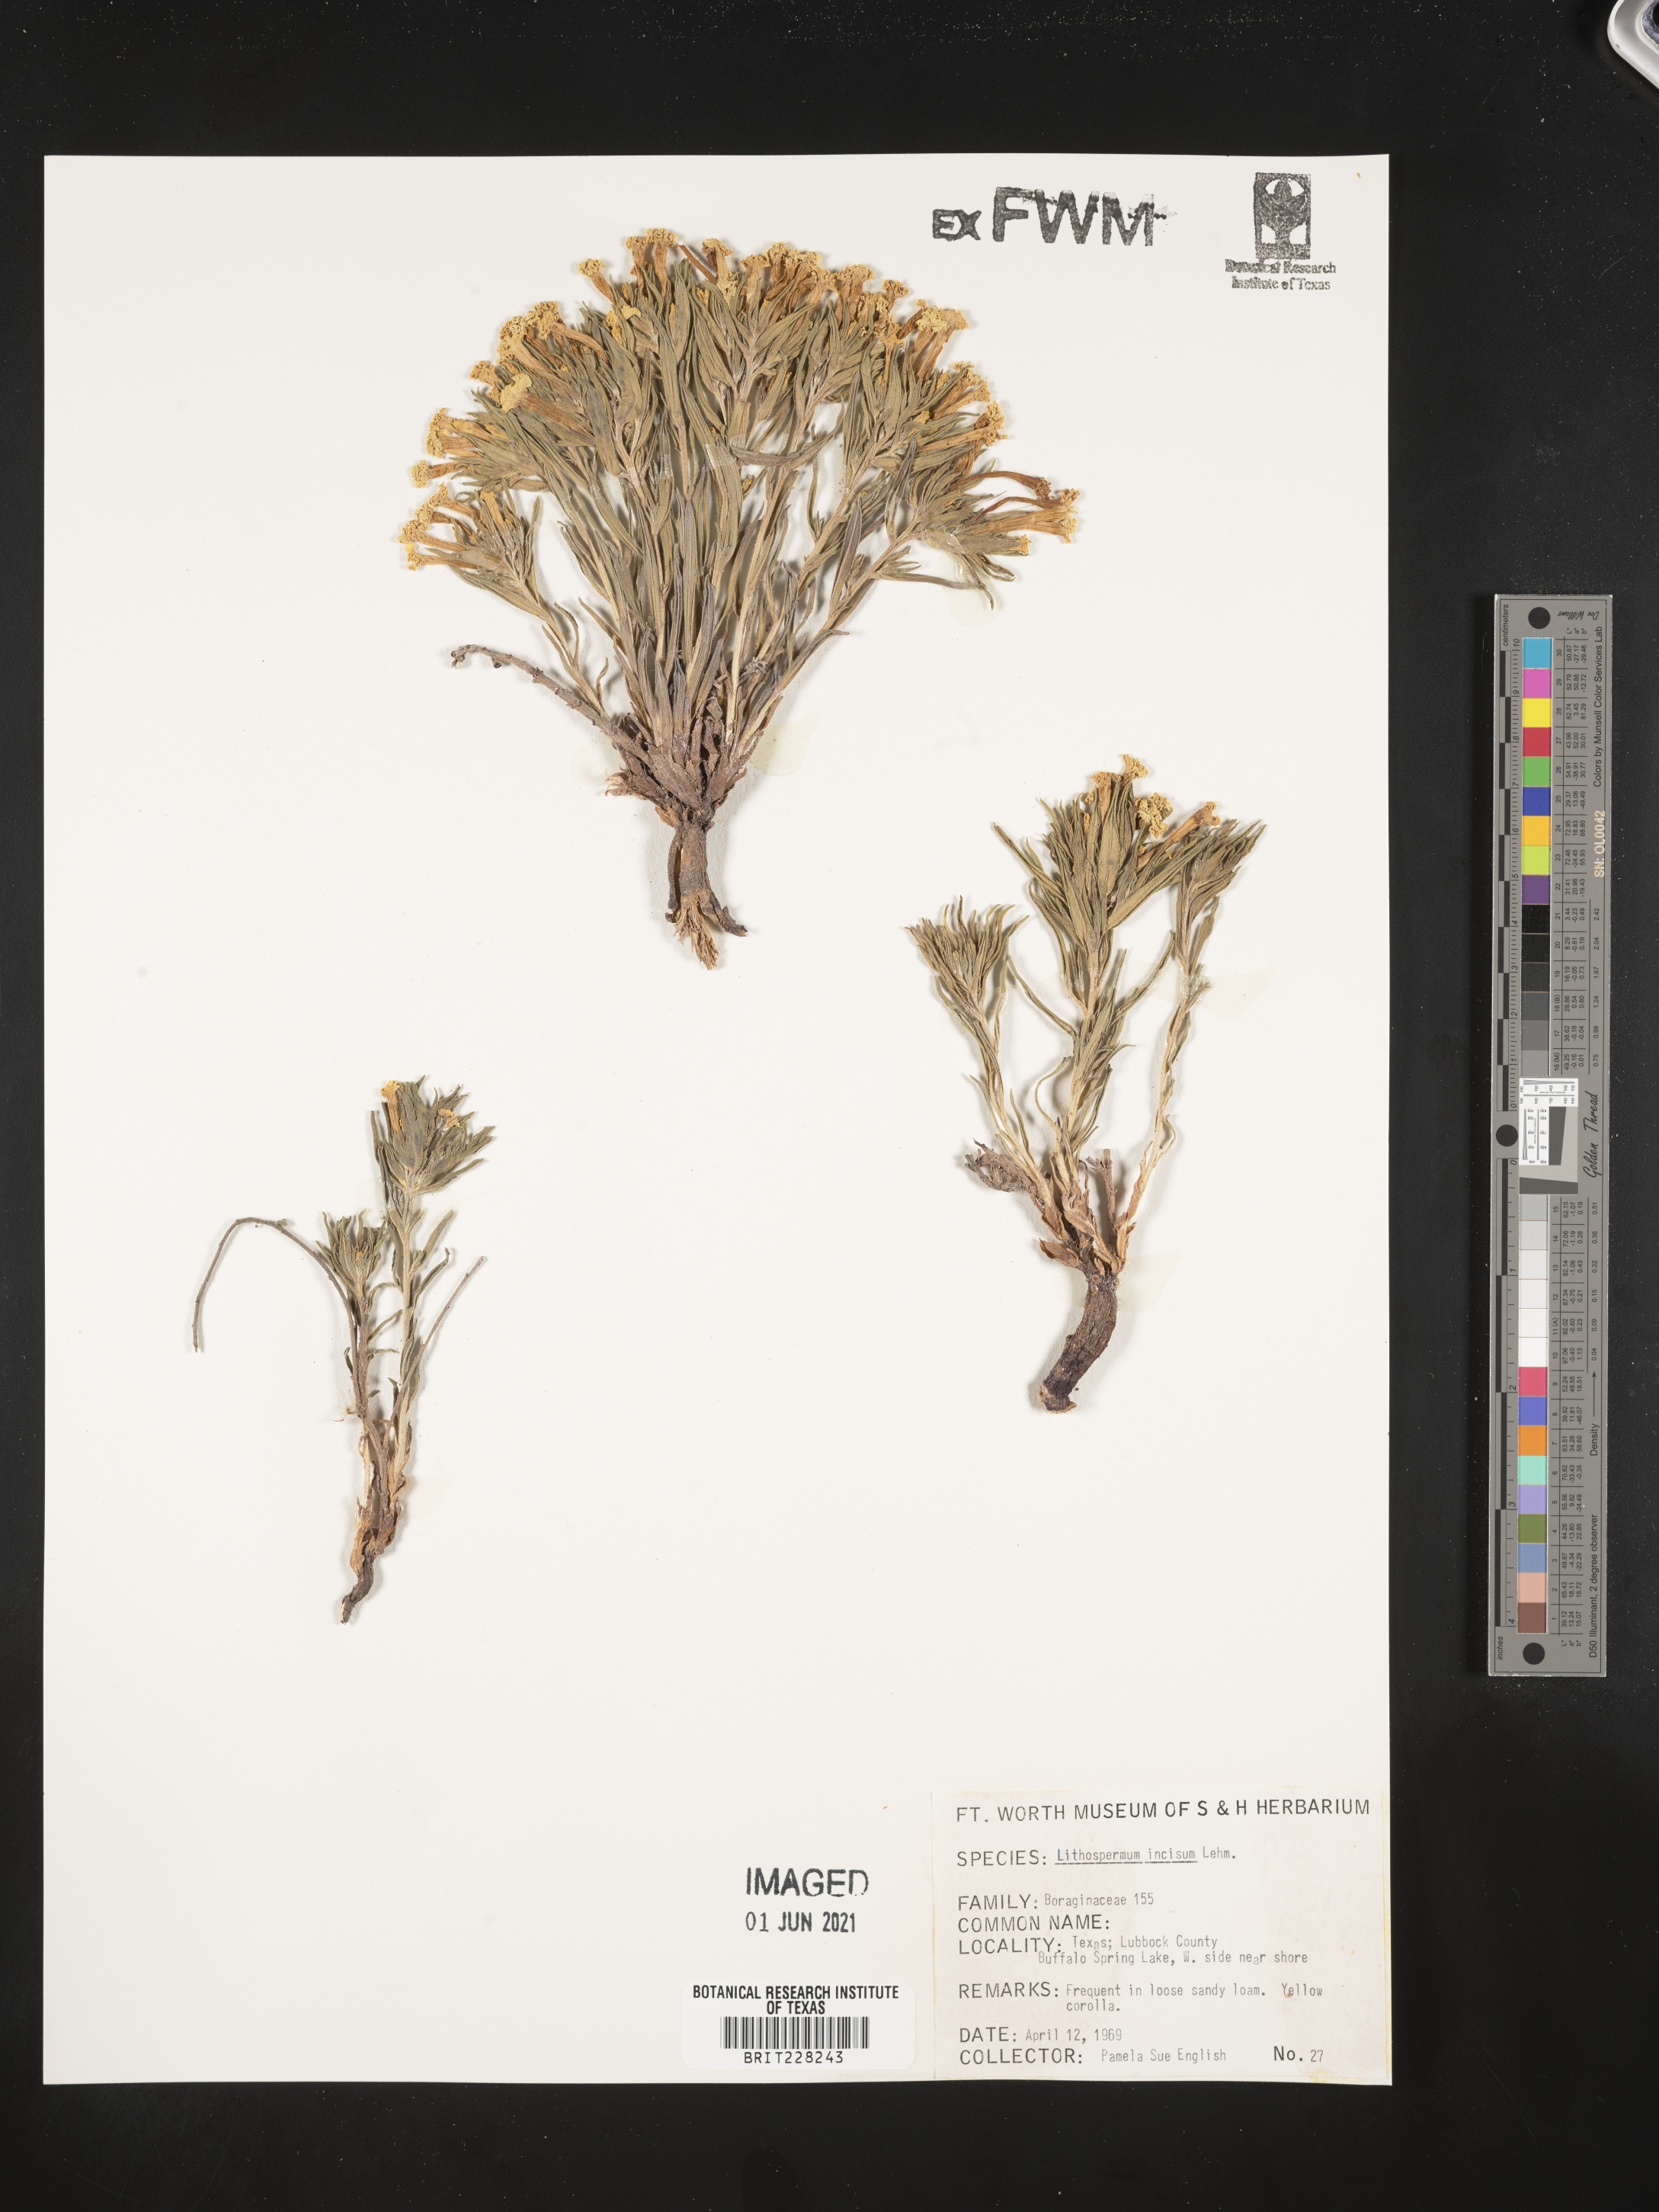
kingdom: Plantae
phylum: Tracheophyta
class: Magnoliopsida
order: Boraginales
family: Boraginaceae
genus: Lithospermum
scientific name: Lithospermum incisum
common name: Fringed gromwell
